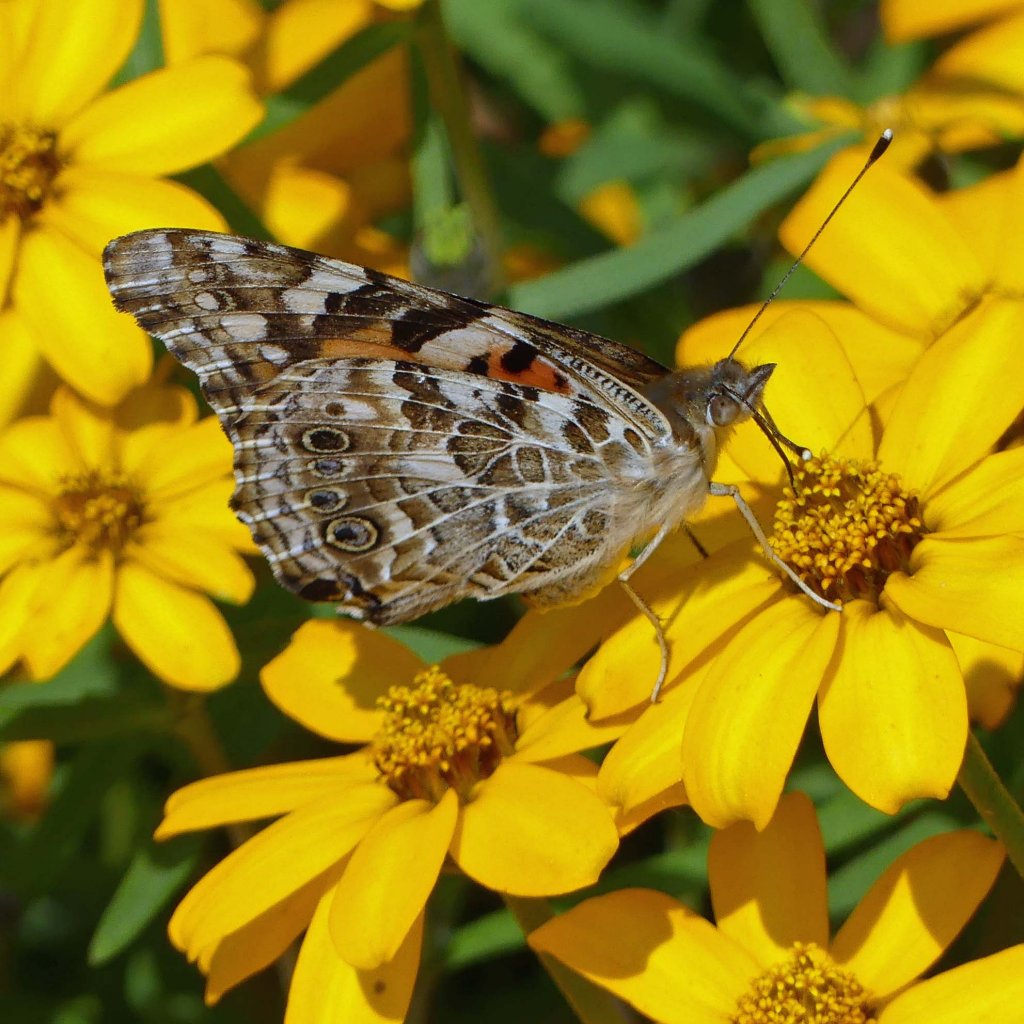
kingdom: Animalia
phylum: Arthropoda
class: Insecta
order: Lepidoptera
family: Nymphalidae
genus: Vanessa
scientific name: Vanessa cardui
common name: Painted Lady
